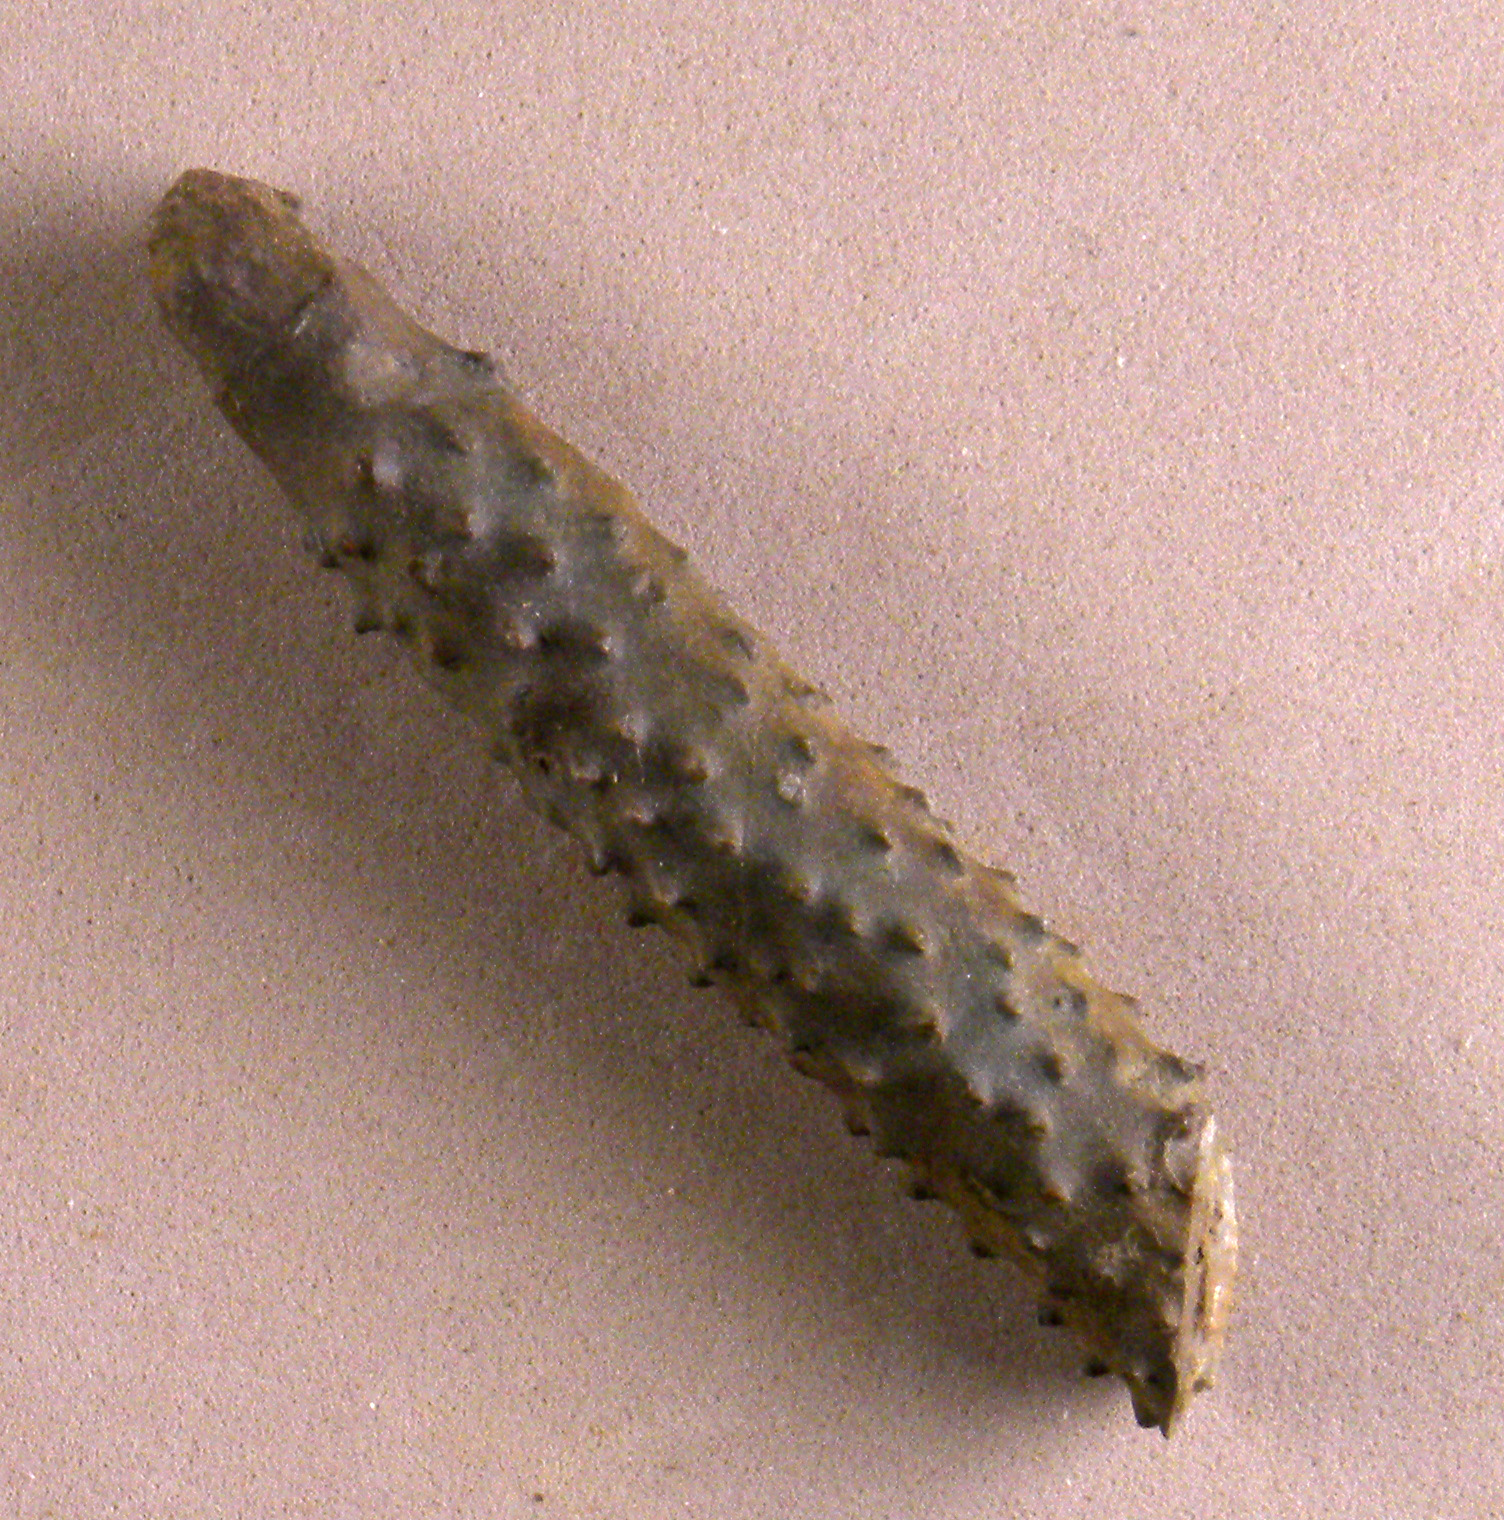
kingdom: Animalia
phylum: Echinodermata
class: Echinoidea
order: Cidaroida
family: Diplocidaridae
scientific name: Diplocidaridae
